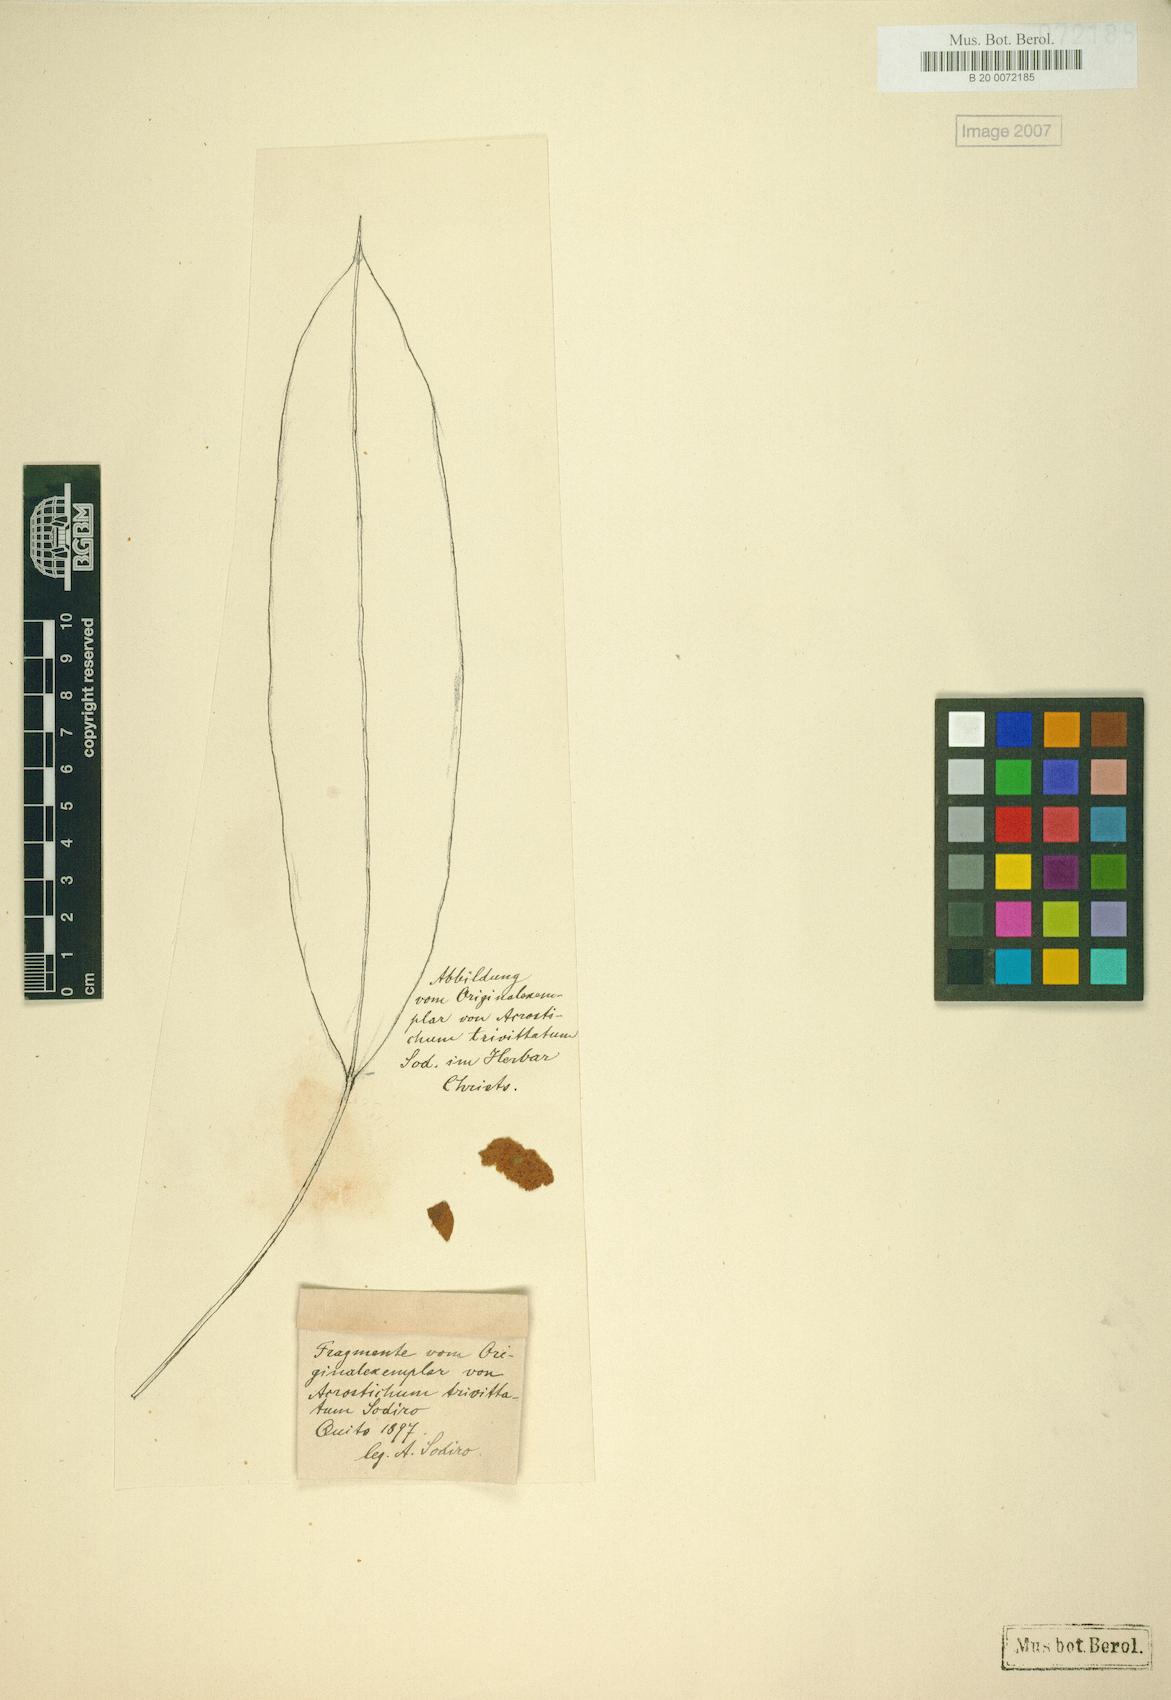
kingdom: Plantae
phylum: Tracheophyta
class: Polypodiopsida
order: Polypodiales
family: Dryopteridaceae
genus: Elaphoglossum
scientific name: Elaphoglossum trivittatum
